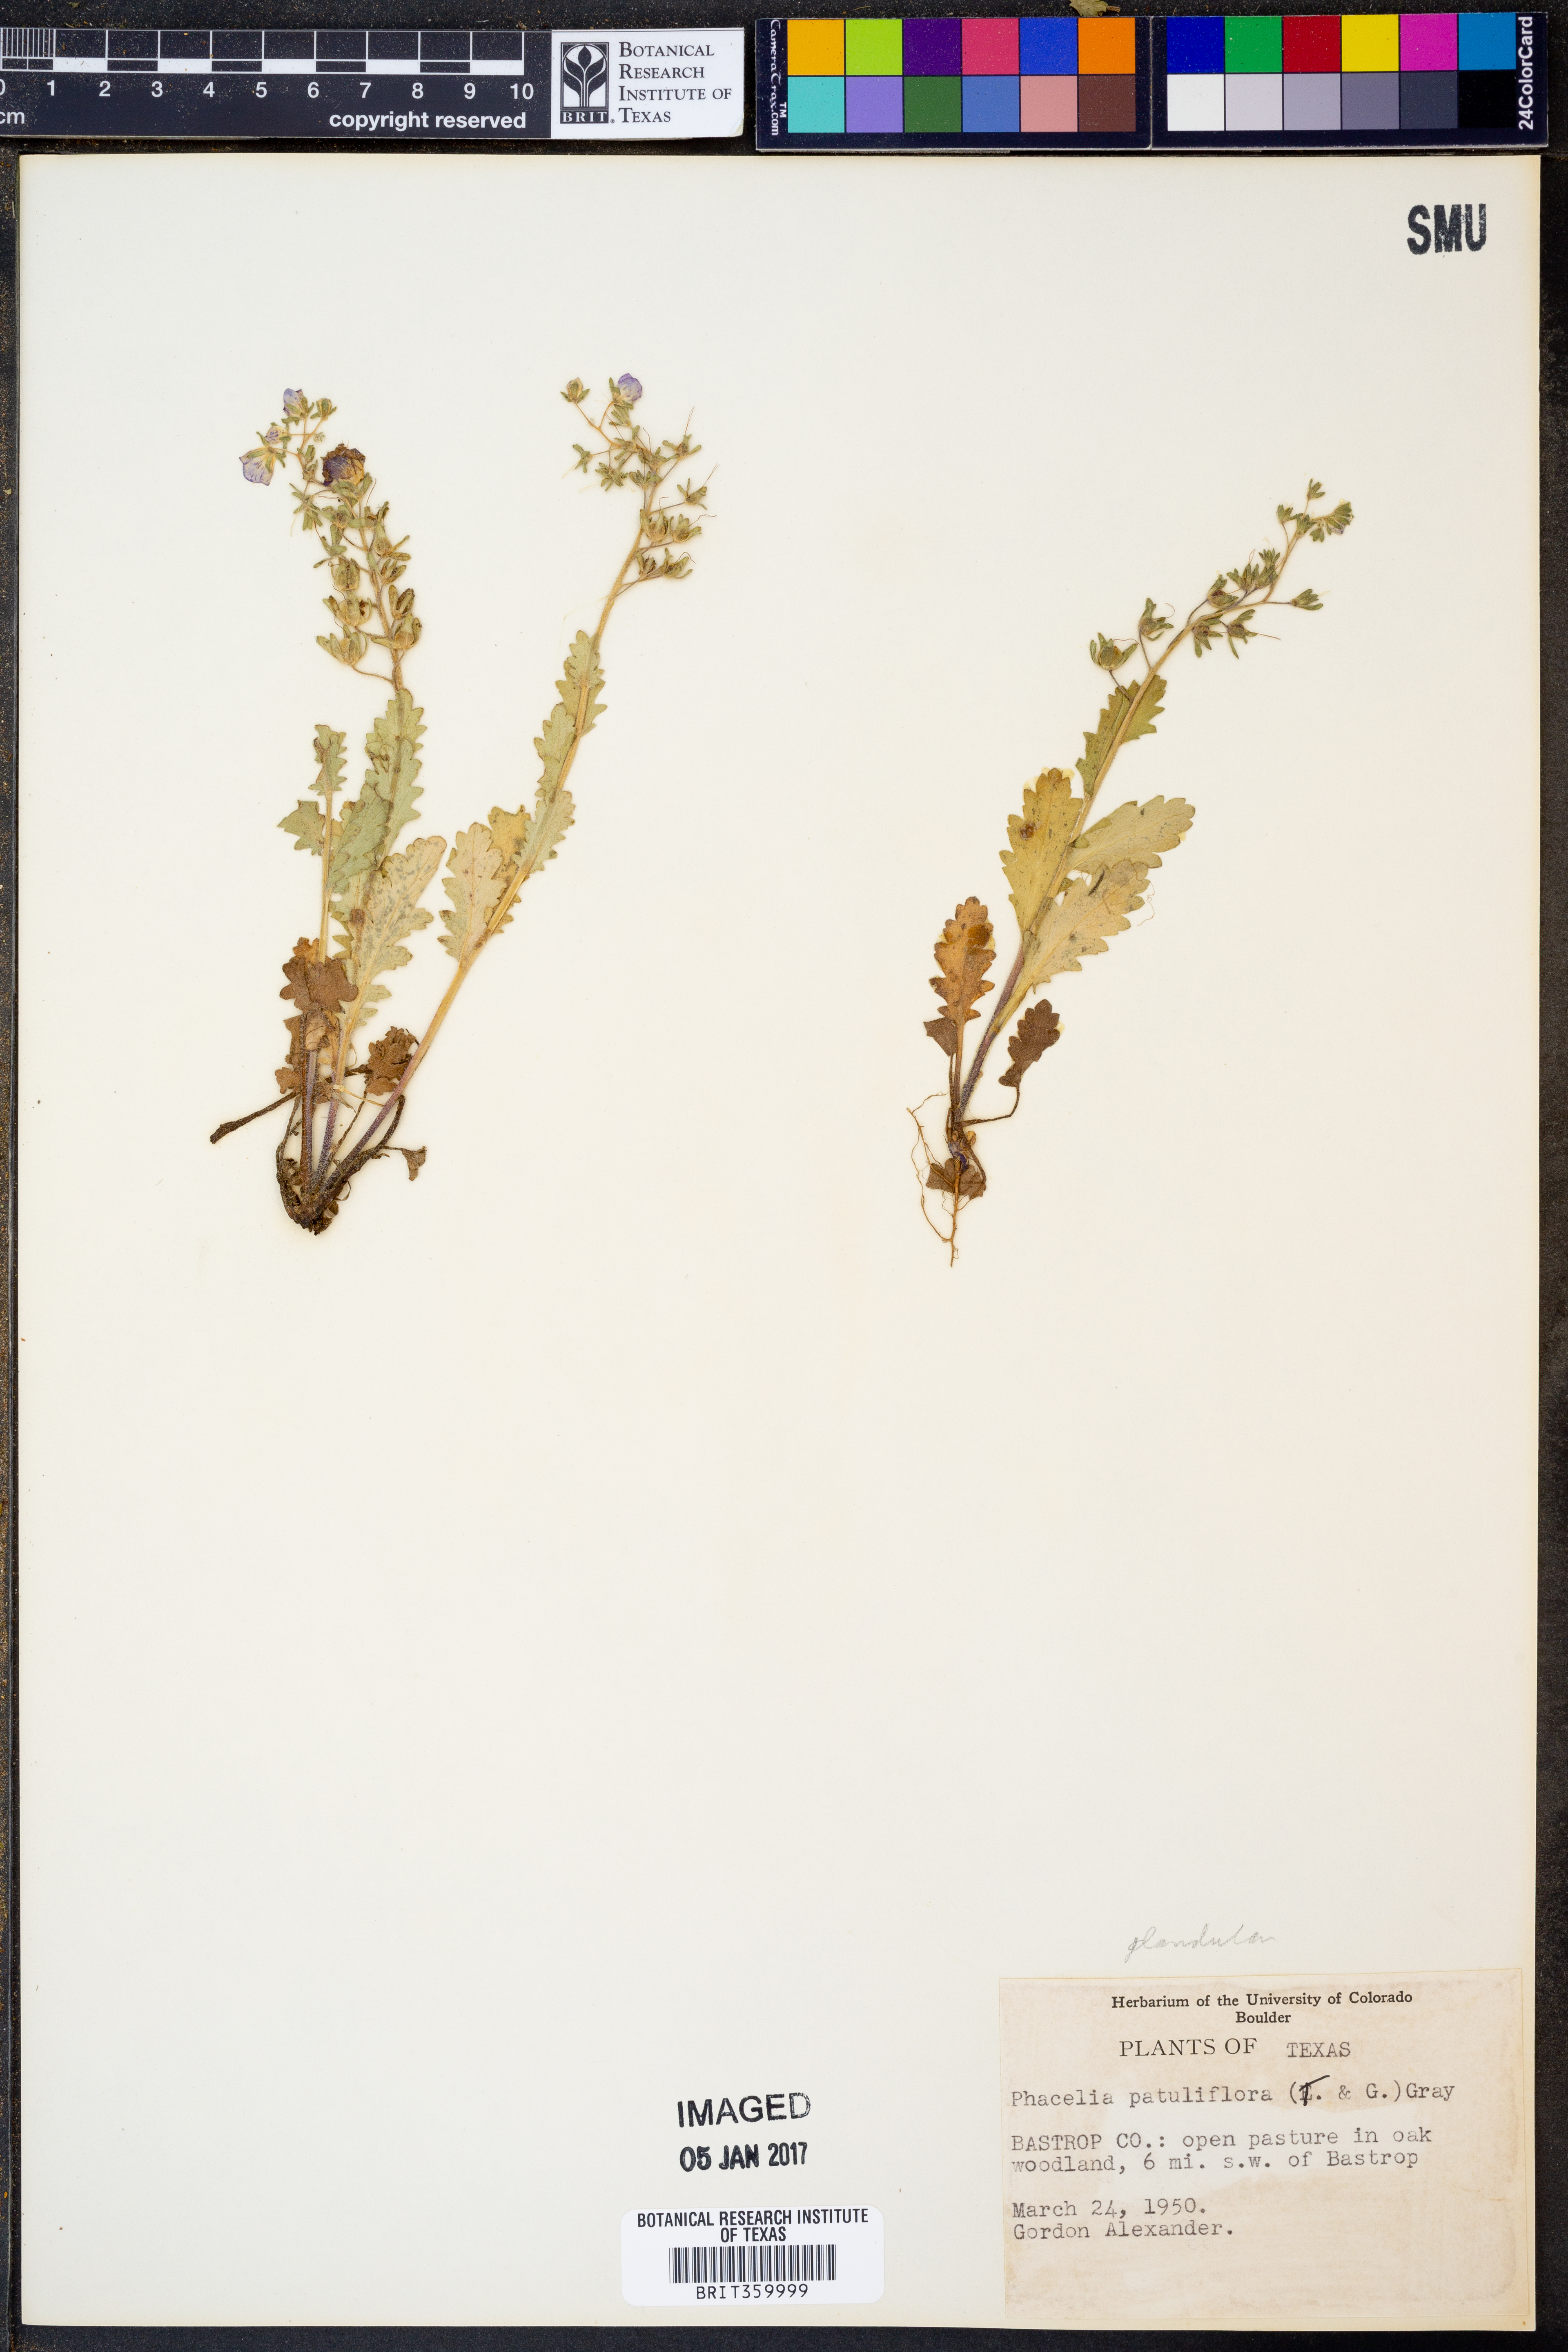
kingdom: Plantae
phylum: Tracheophyta
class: Magnoliopsida
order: Boraginales
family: Hydrophyllaceae
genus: Phacelia
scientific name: Phacelia patuliflora
